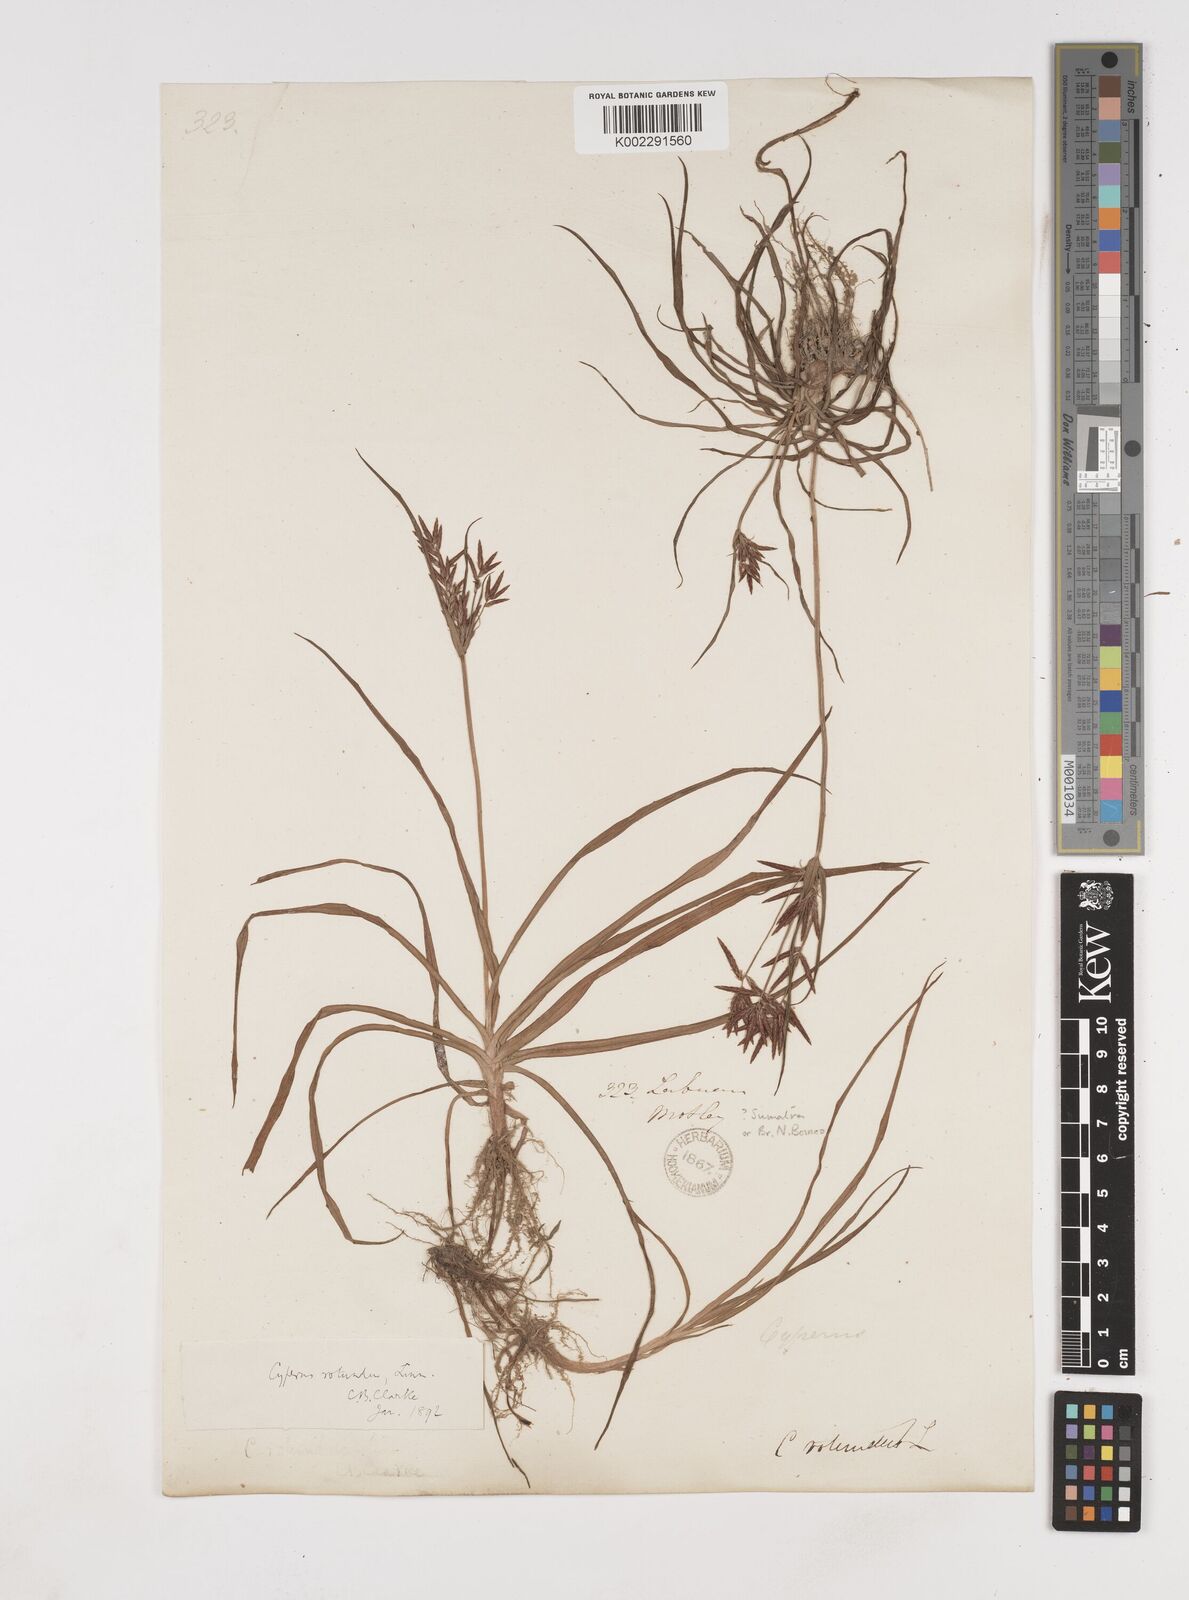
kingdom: Plantae
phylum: Tracheophyta
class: Liliopsida
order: Poales
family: Cyperaceae
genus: Cyperus
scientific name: Cyperus rotundus
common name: Nutgrass
